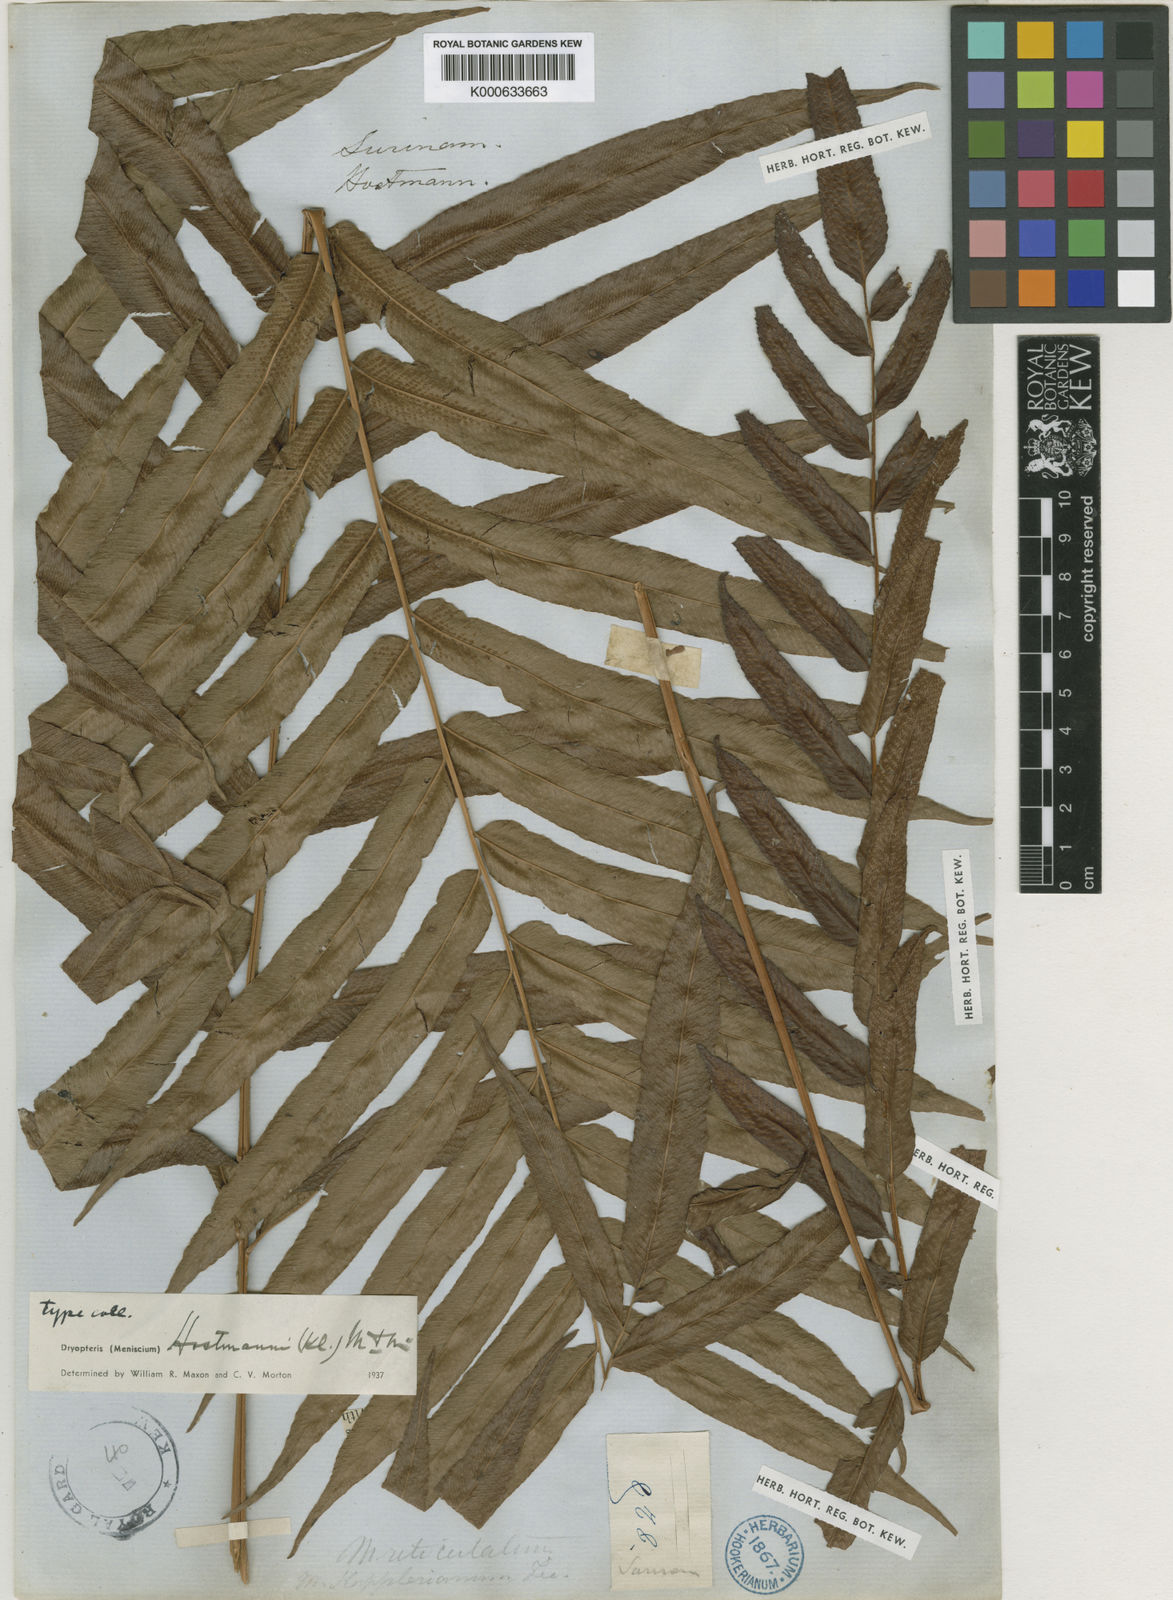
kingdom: Plantae
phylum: Tracheophyta
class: Polypodiopsida
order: Polypodiales
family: Thelypteridaceae
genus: Meniscium
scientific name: Meniscium hostmannii
